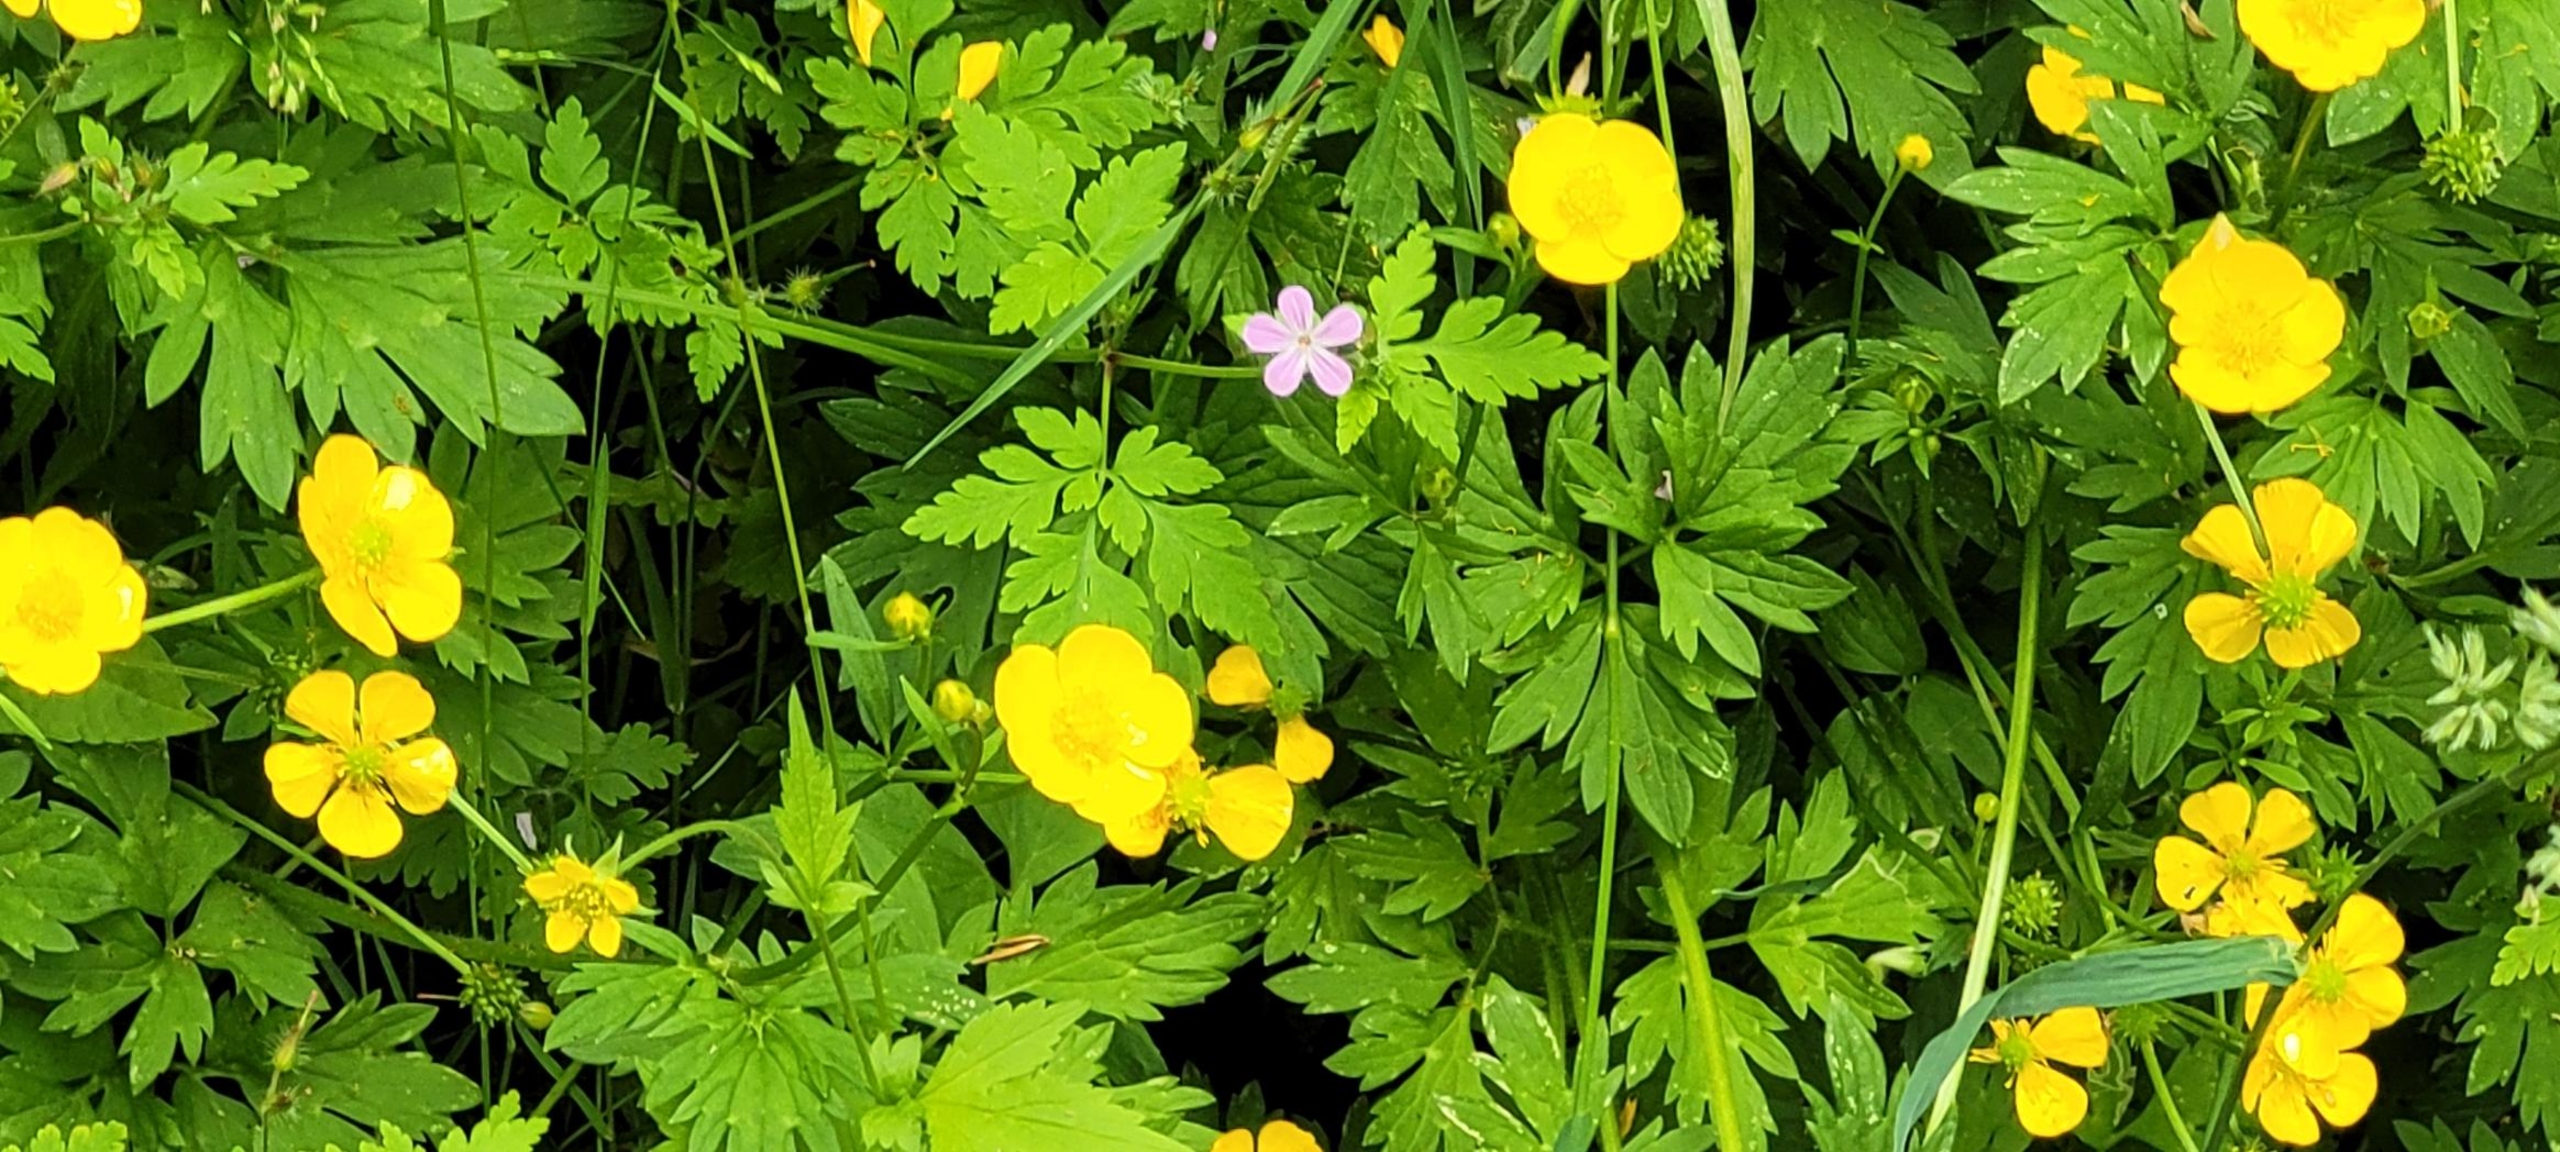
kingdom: Plantae
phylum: Tracheophyta
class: Magnoliopsida
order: Ranunculales
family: Ranunculaceae
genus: Ranunculus
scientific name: Ranunculus repens
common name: Lav ranunkel
